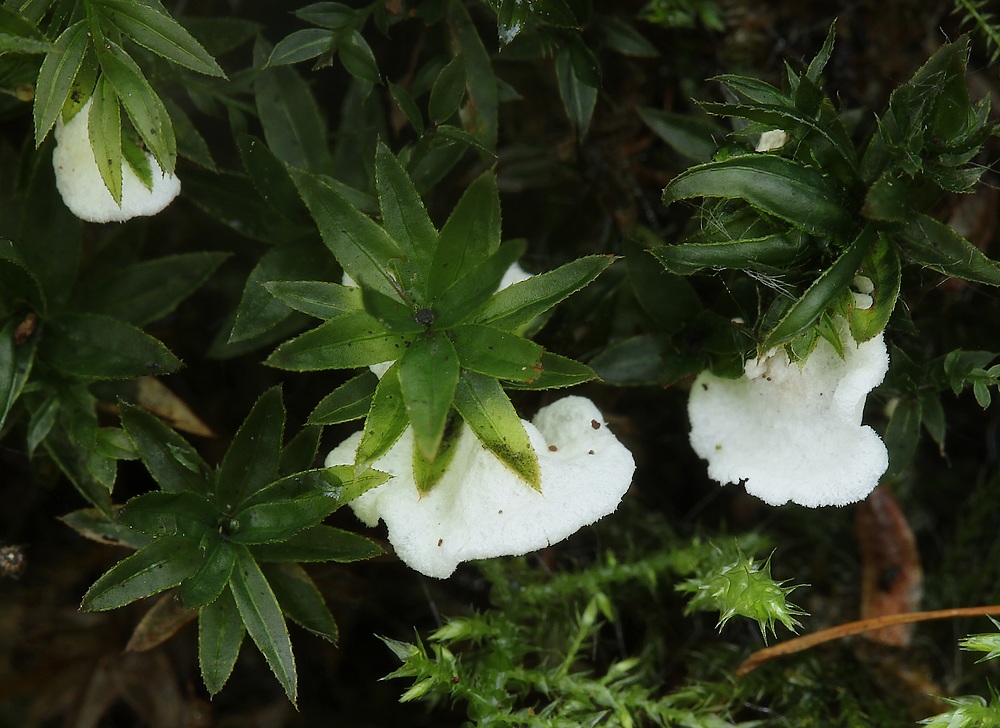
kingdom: Fungi
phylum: Basidiomycota
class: Agaricomycetes
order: Agaricales
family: Tricholomataceae
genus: Rimbachia
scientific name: Rimbachia arachnoidea
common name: Almindelig mosskål
